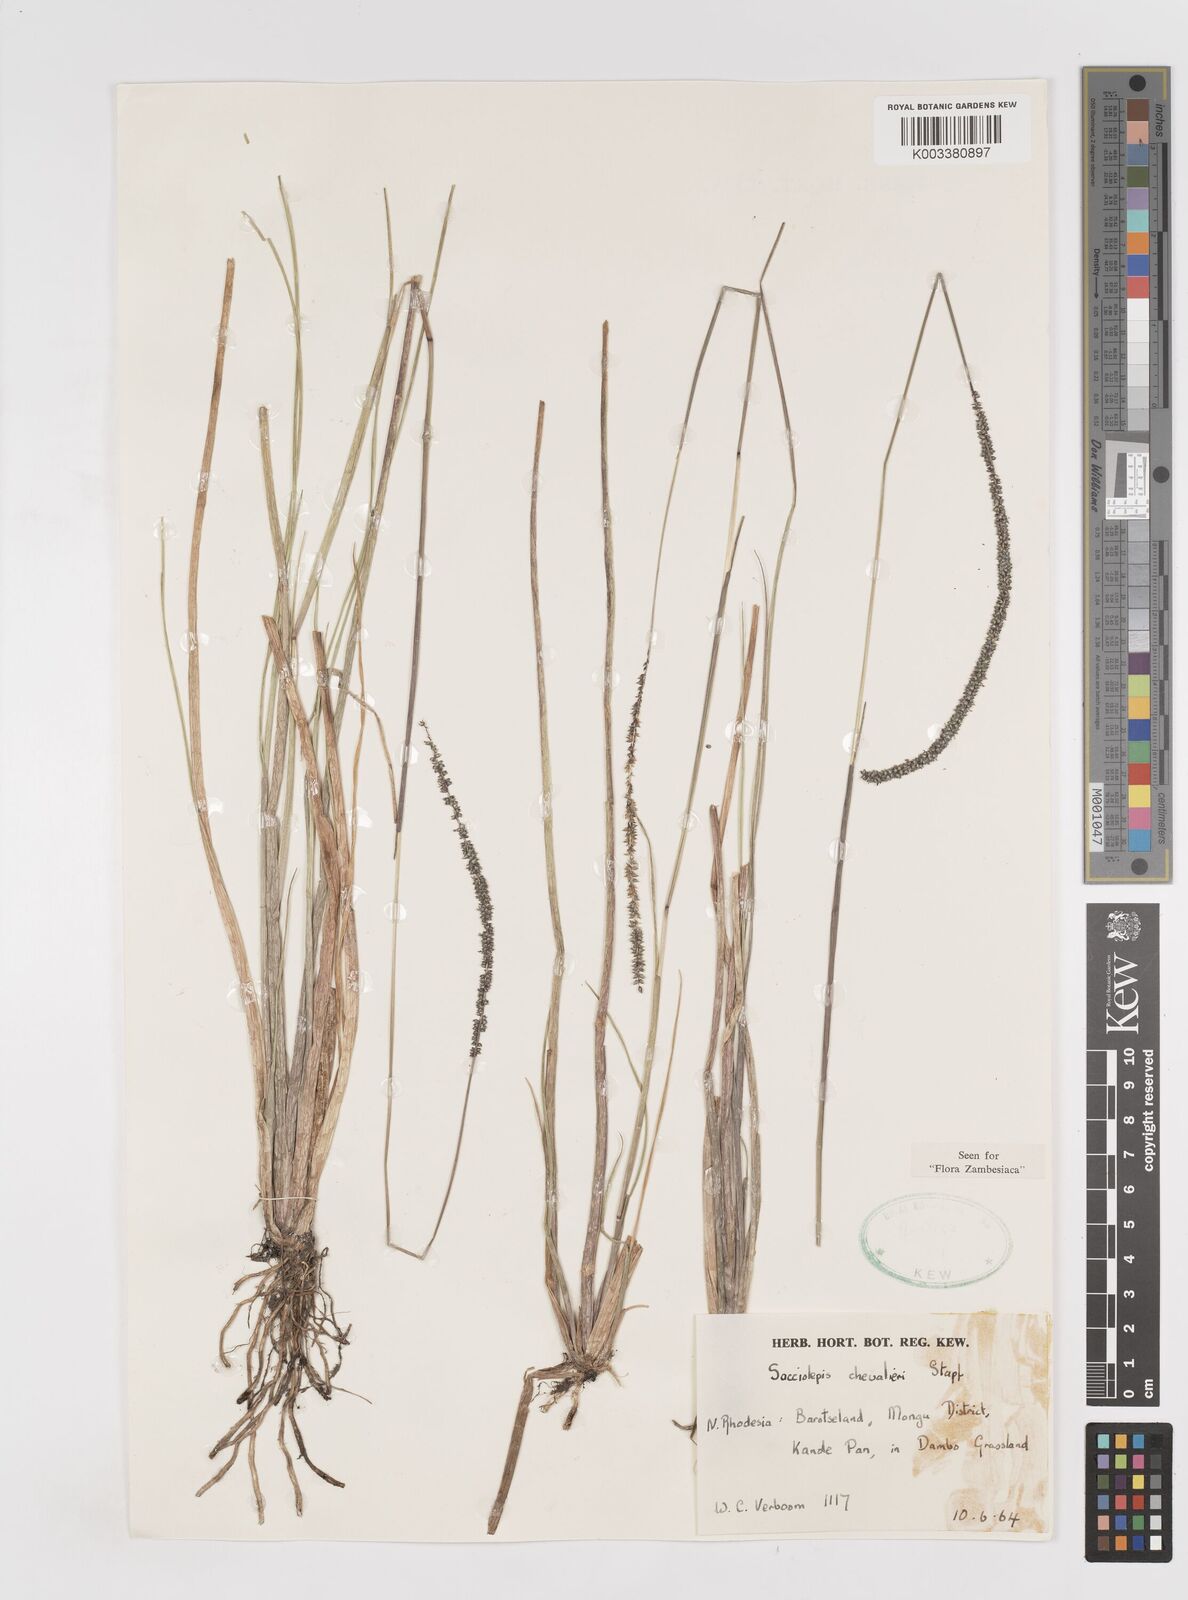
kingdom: Plantae
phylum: Tracheophyta
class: Liliopsida
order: Poales
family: Poaceae
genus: Sacciolepis
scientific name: Sacciolepis chevalieri
